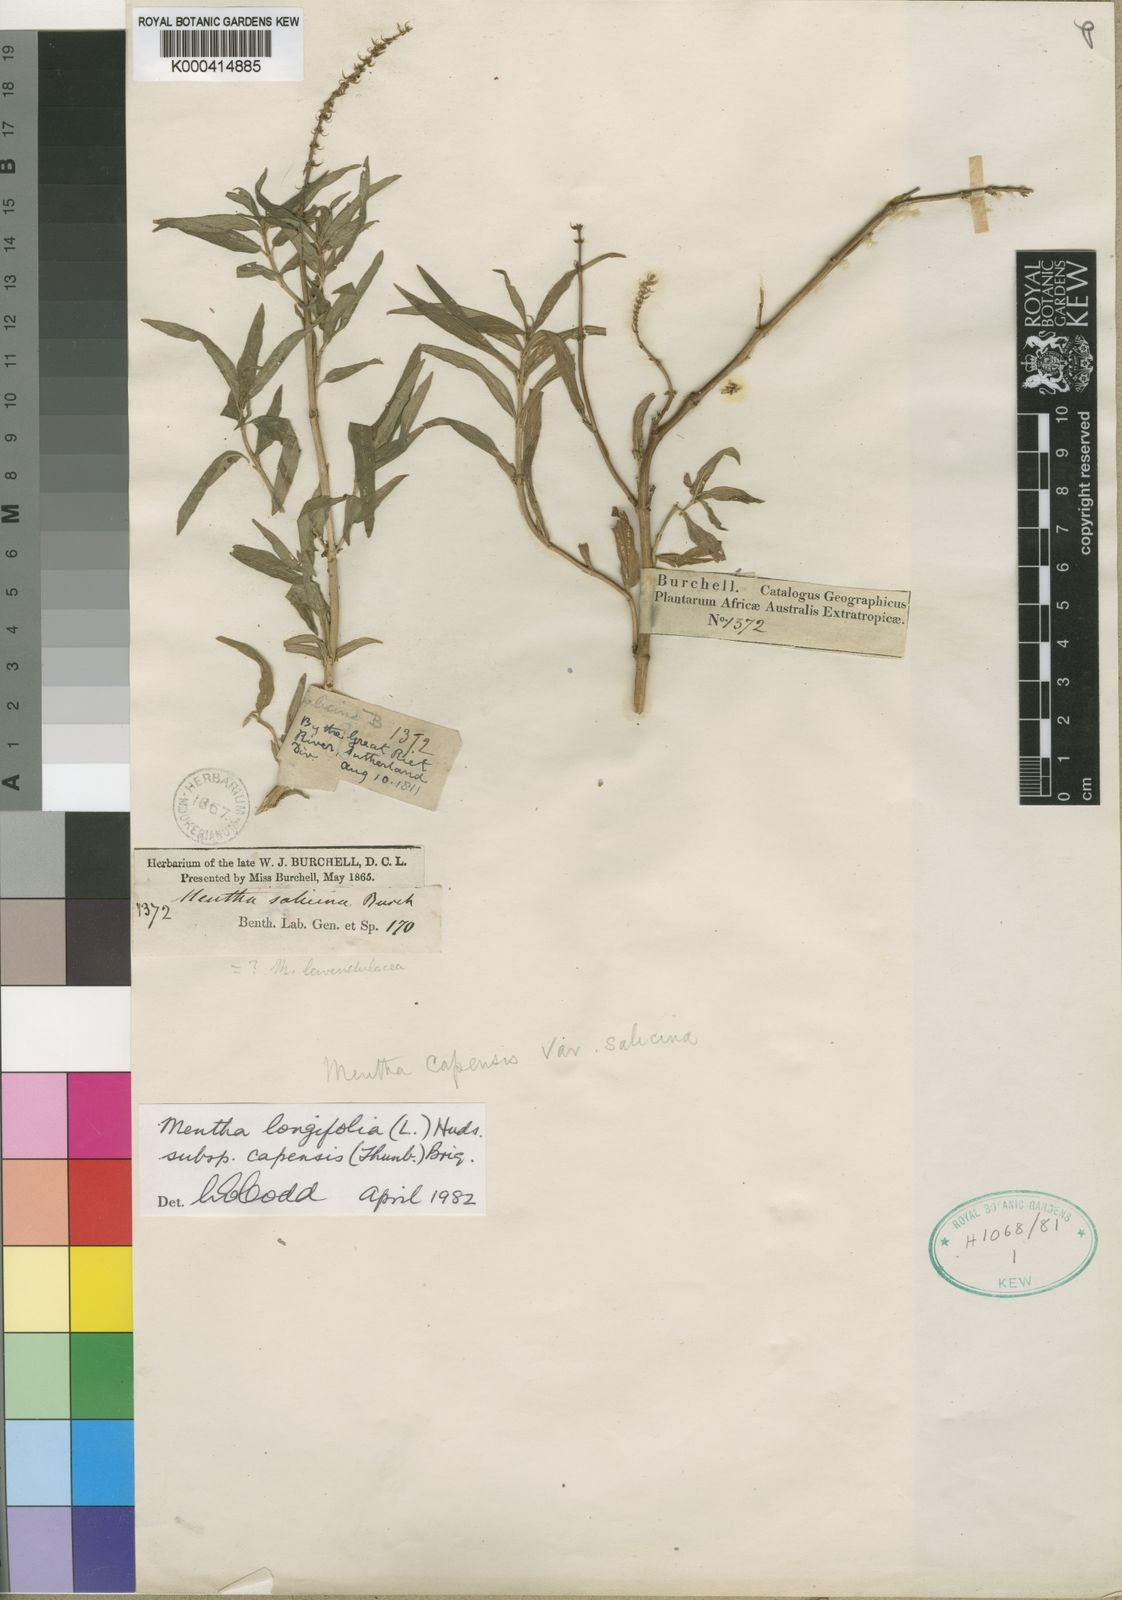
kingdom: Plantae
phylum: Tracheophyta
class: Magnoliopsida
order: Lamiales
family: Lamiaceae
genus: Mentha
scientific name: Mentha
